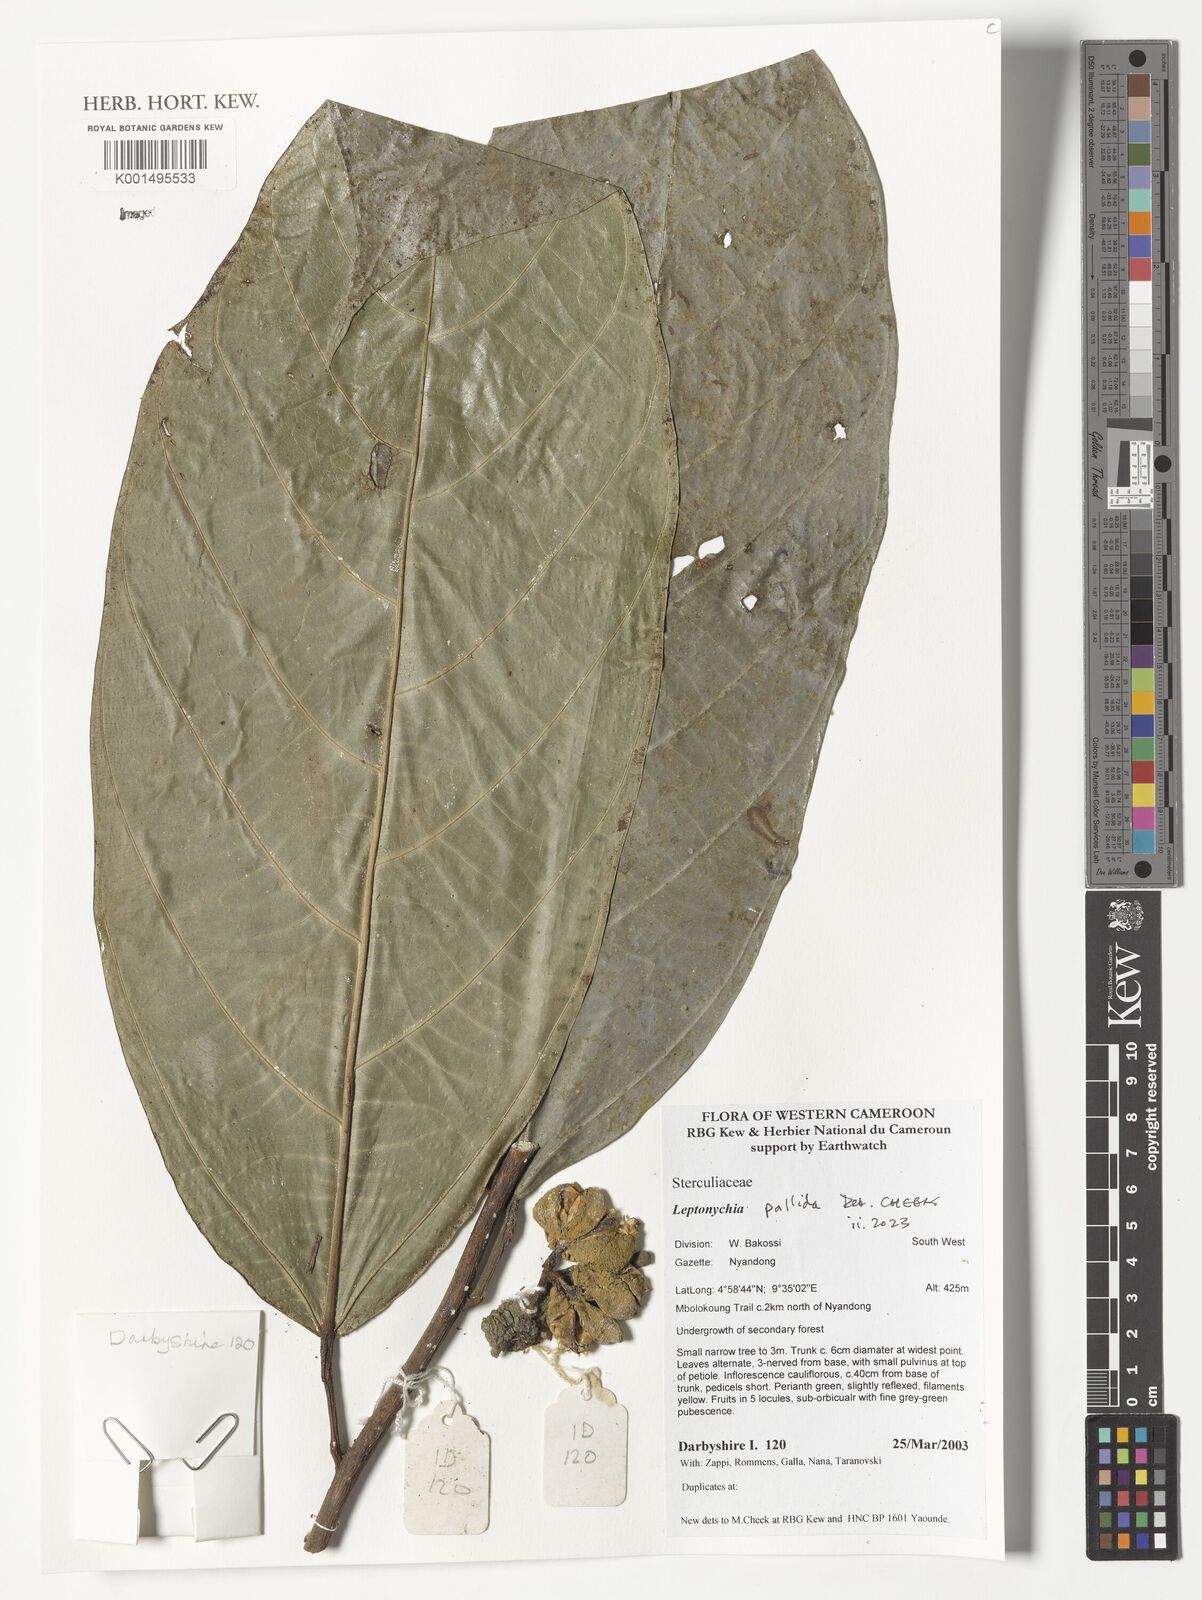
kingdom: Plantae
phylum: Tracheophyta
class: Magnoliopsida
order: Malvales
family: Malvaceae
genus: Leptonychia
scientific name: Leptonychia pallida
